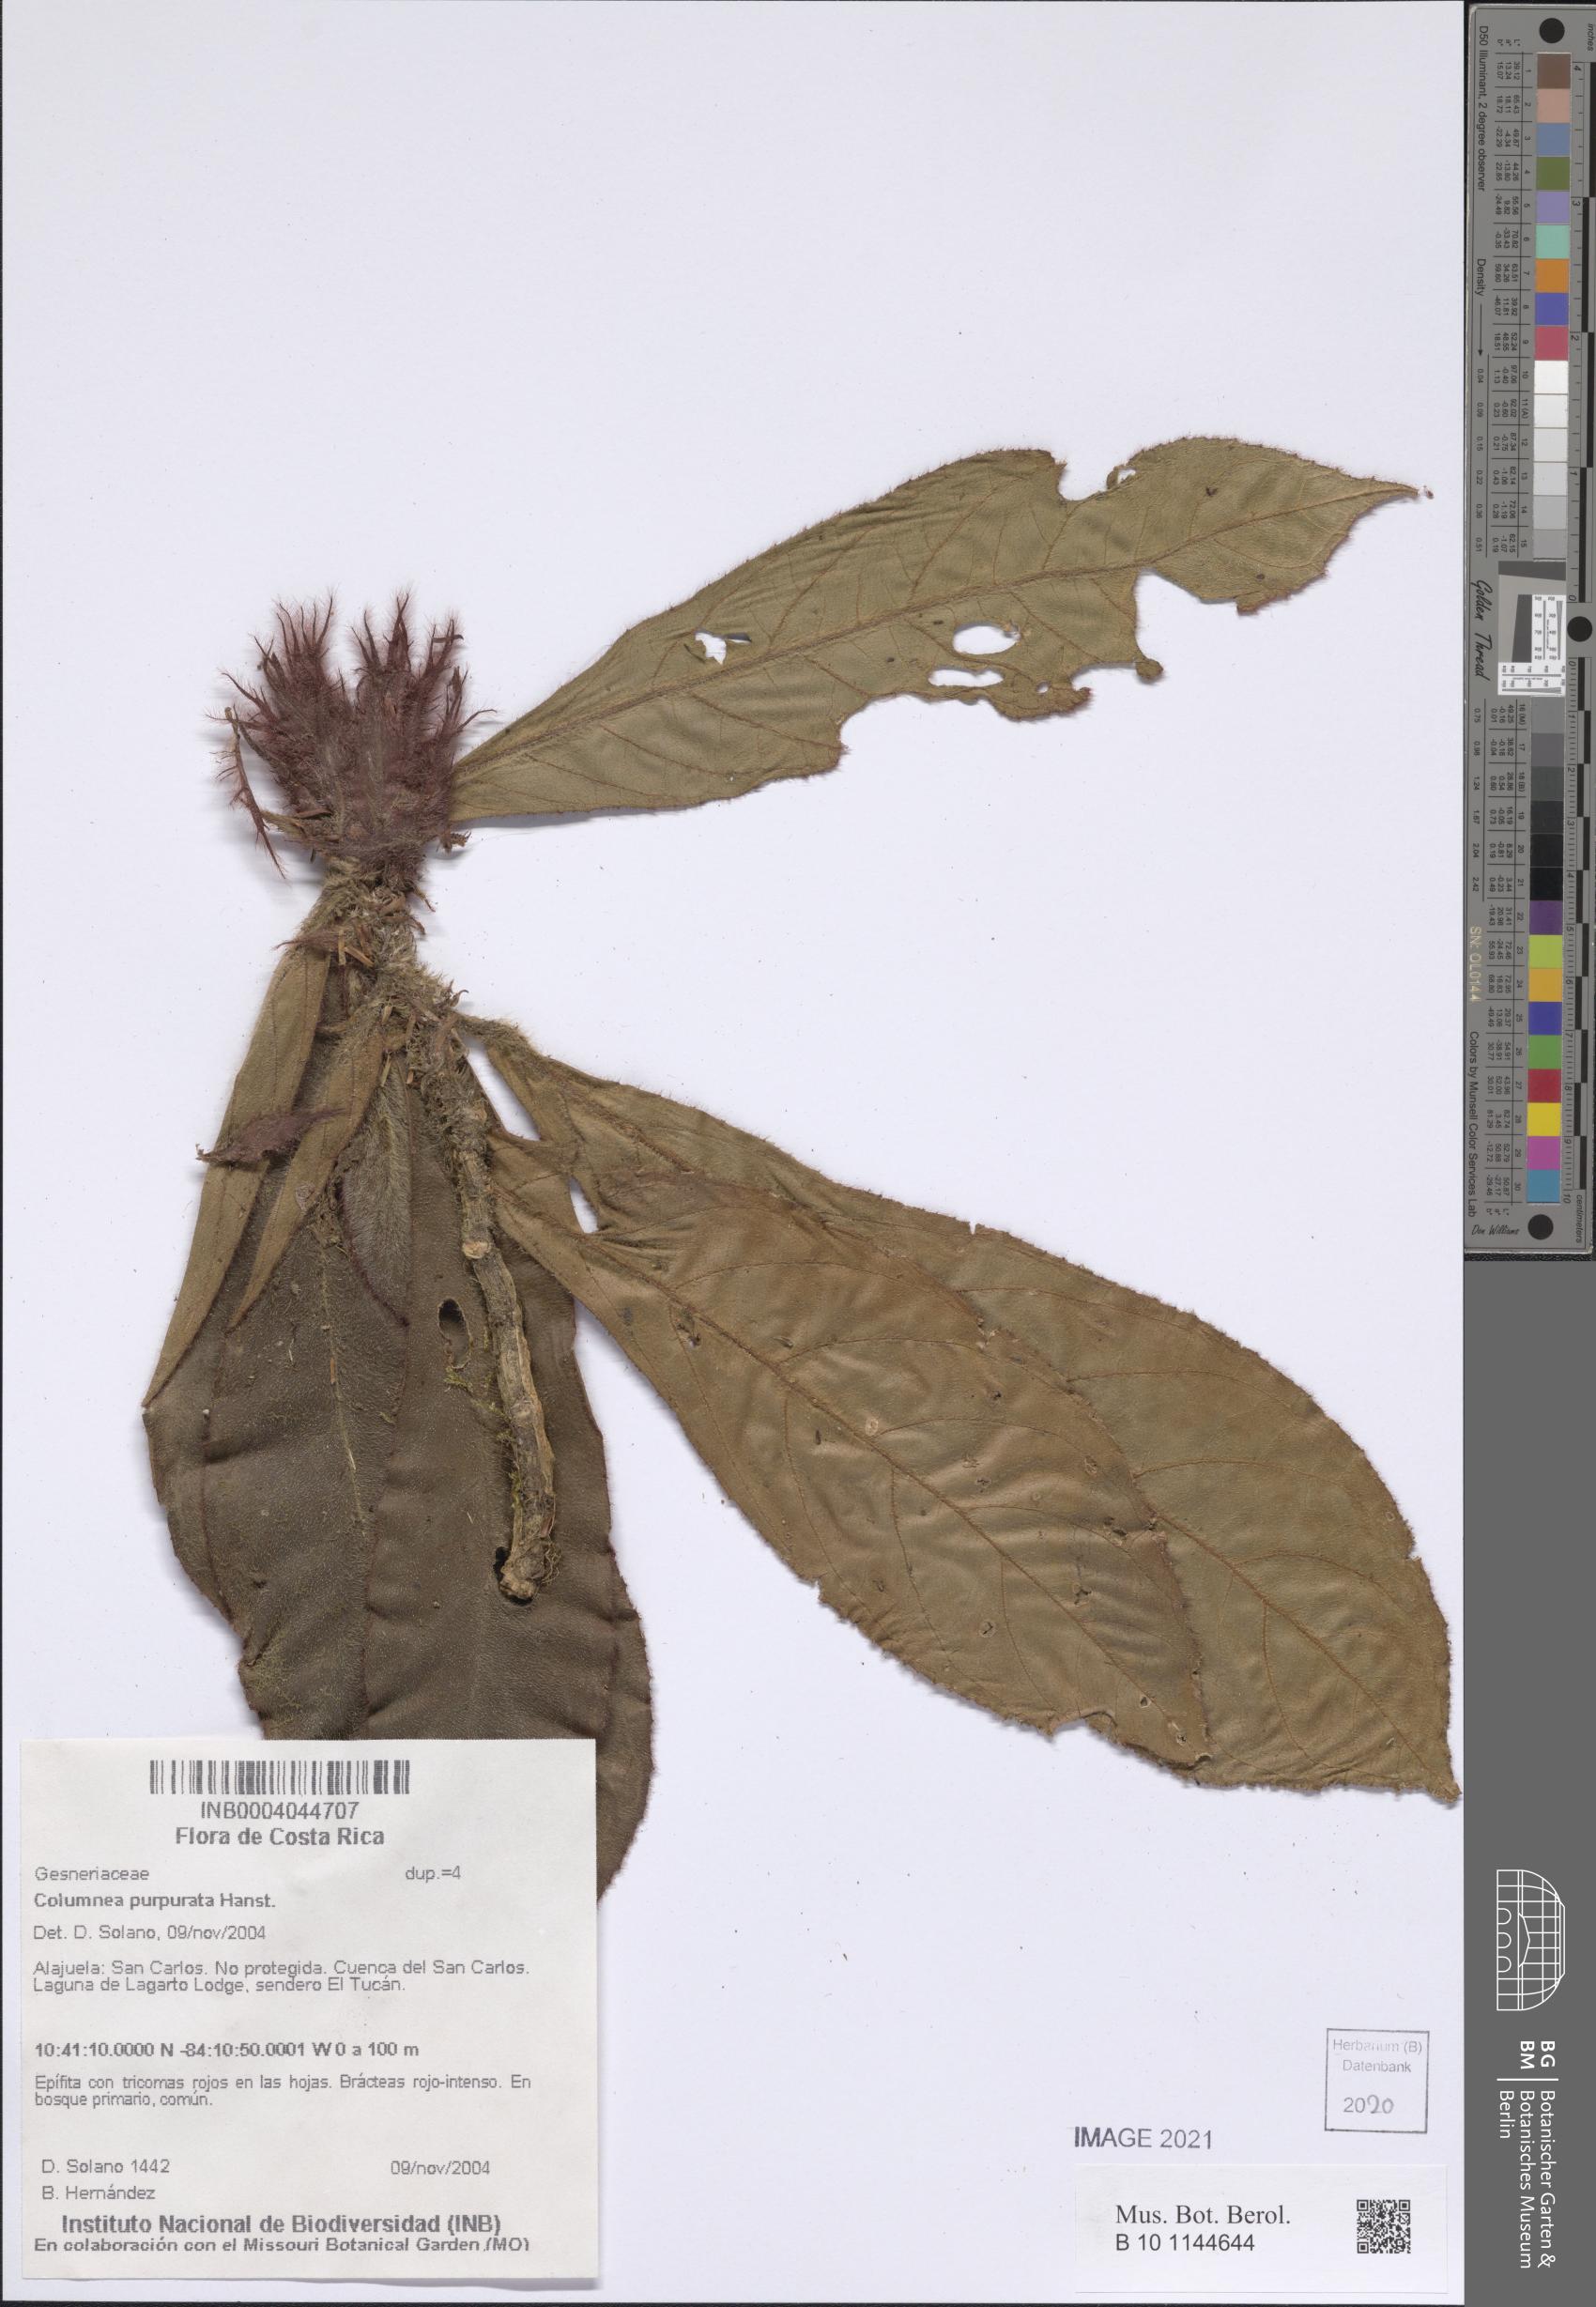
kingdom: Plantae
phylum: Tracheophyta
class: Magnoliopsida
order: Lamiales
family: Gesneriaceae
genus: Columnea
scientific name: Columnea purpurata
